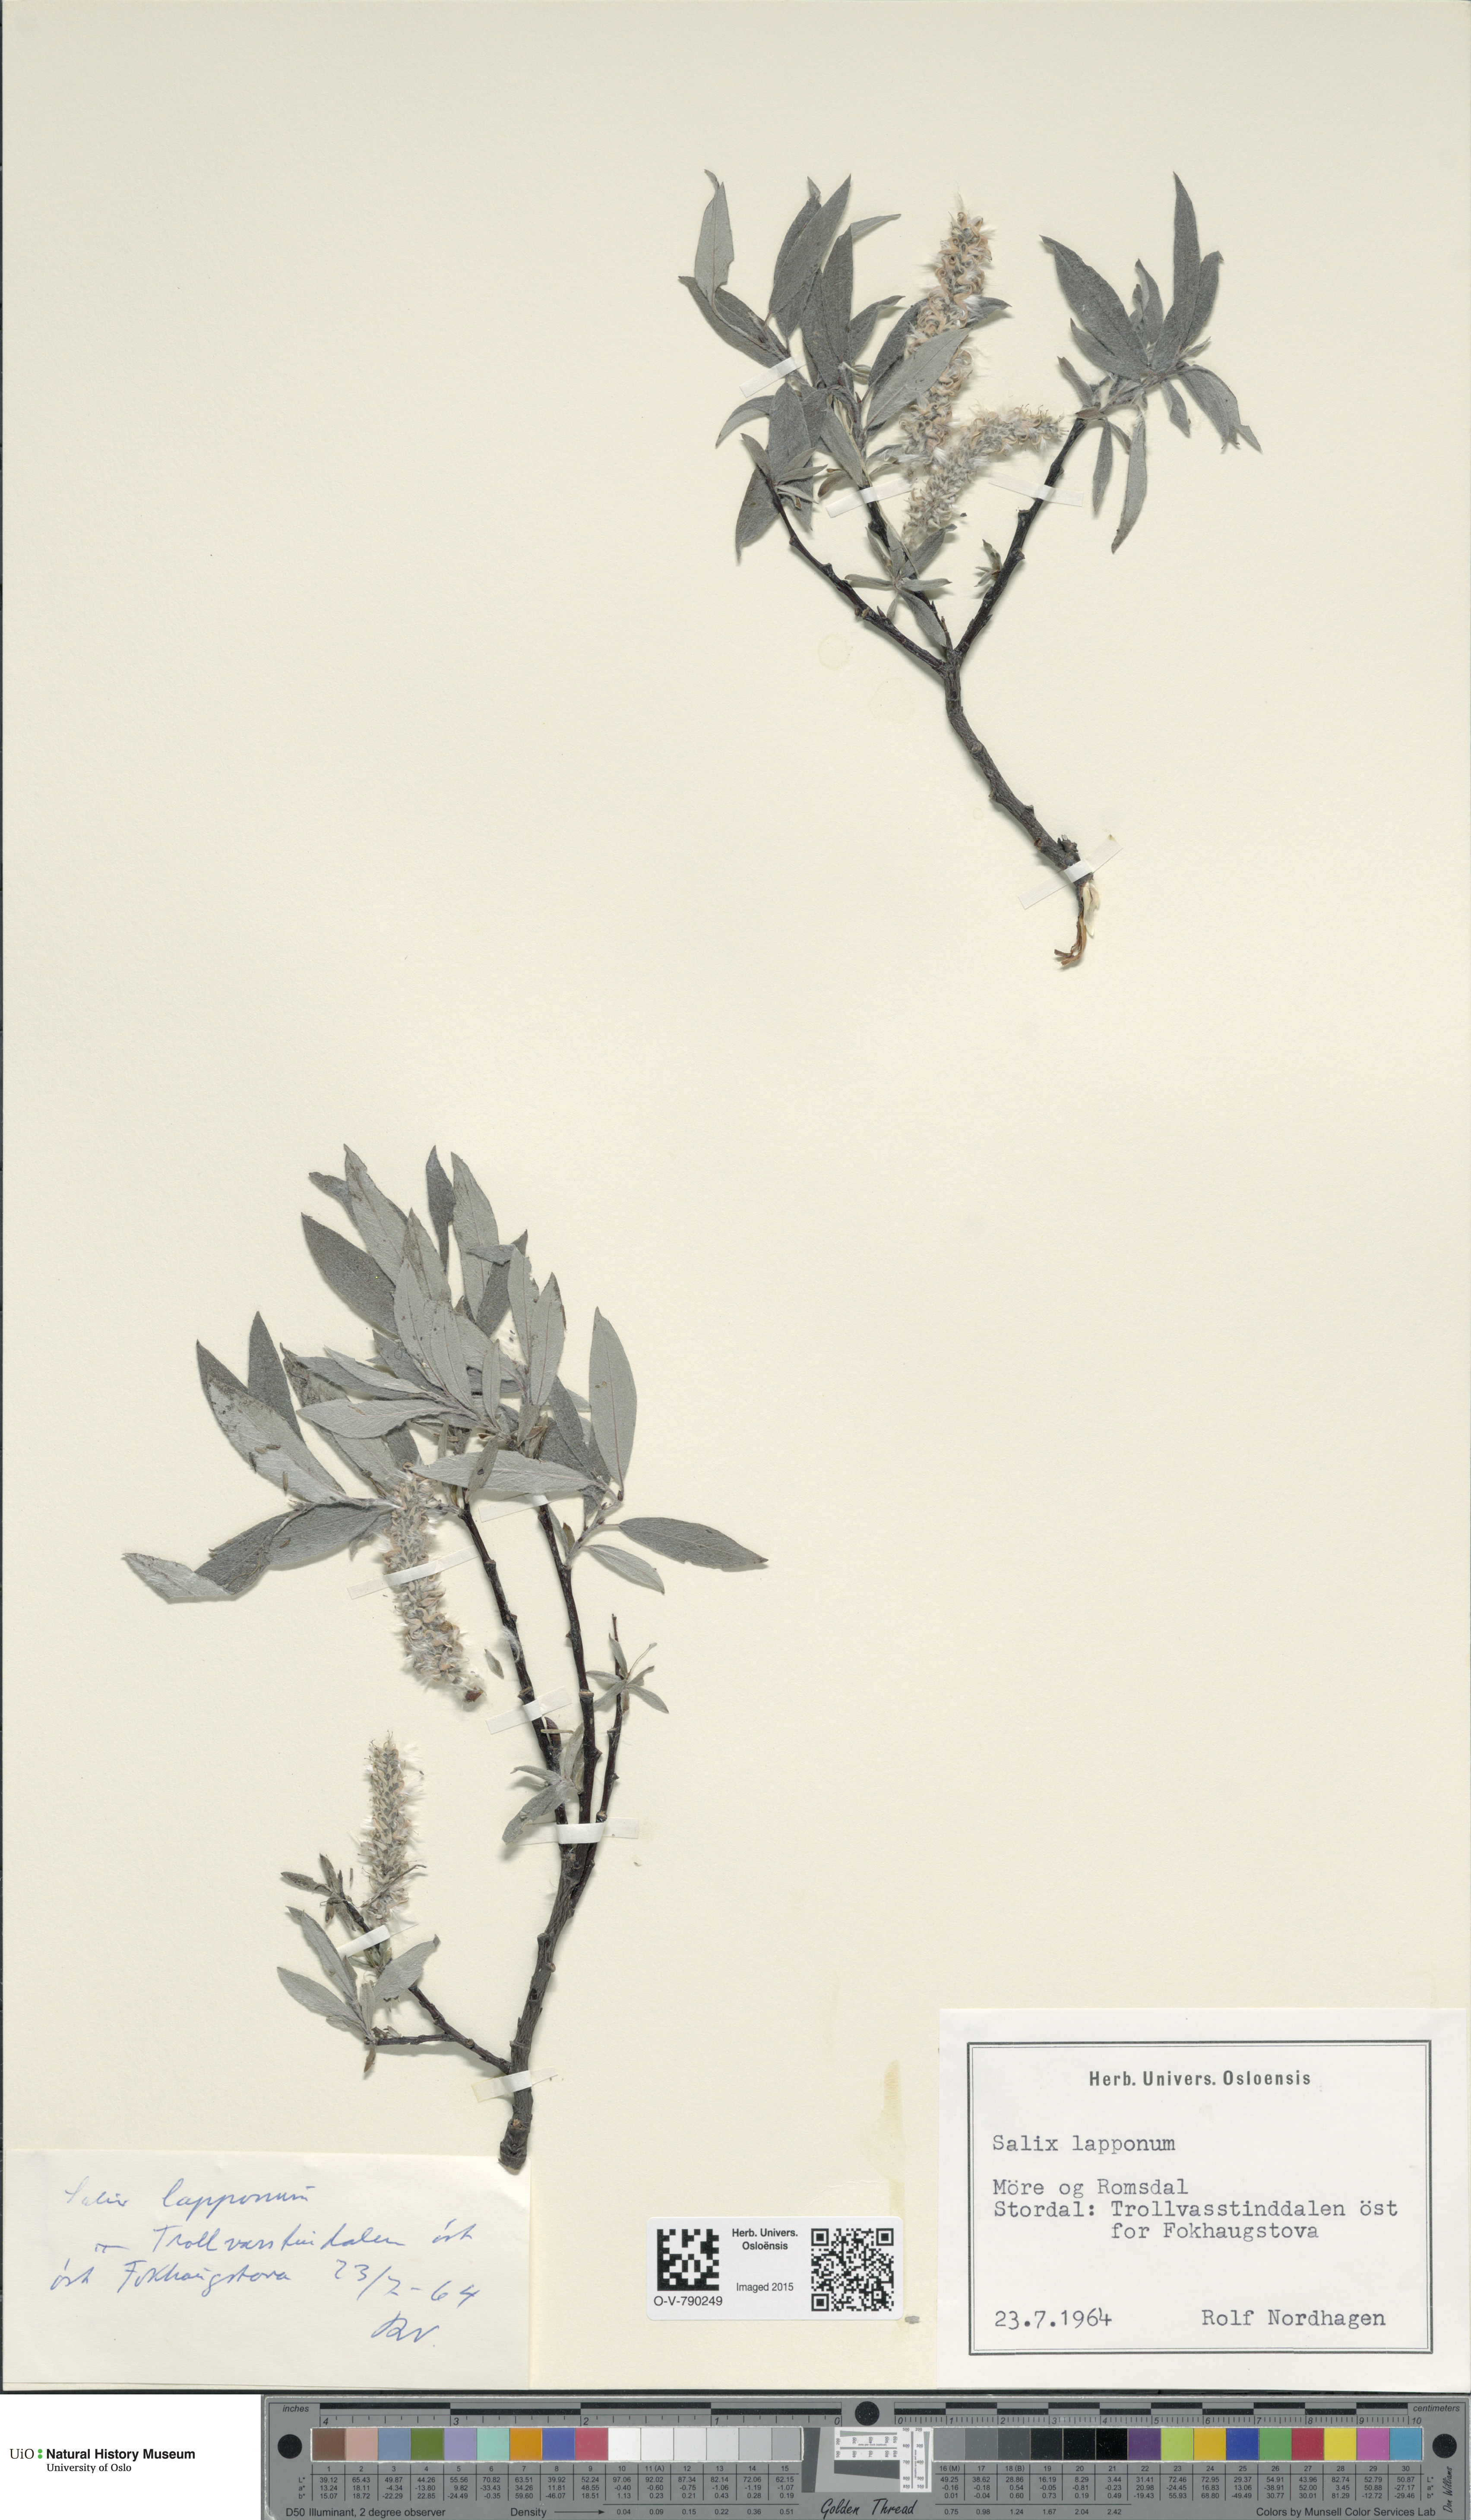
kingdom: Plantae
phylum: Tracheophyta
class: Magnoliopsida
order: Malpighiales
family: Salicaceae
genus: Salix
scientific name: Salix lapponum
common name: Downy willow
